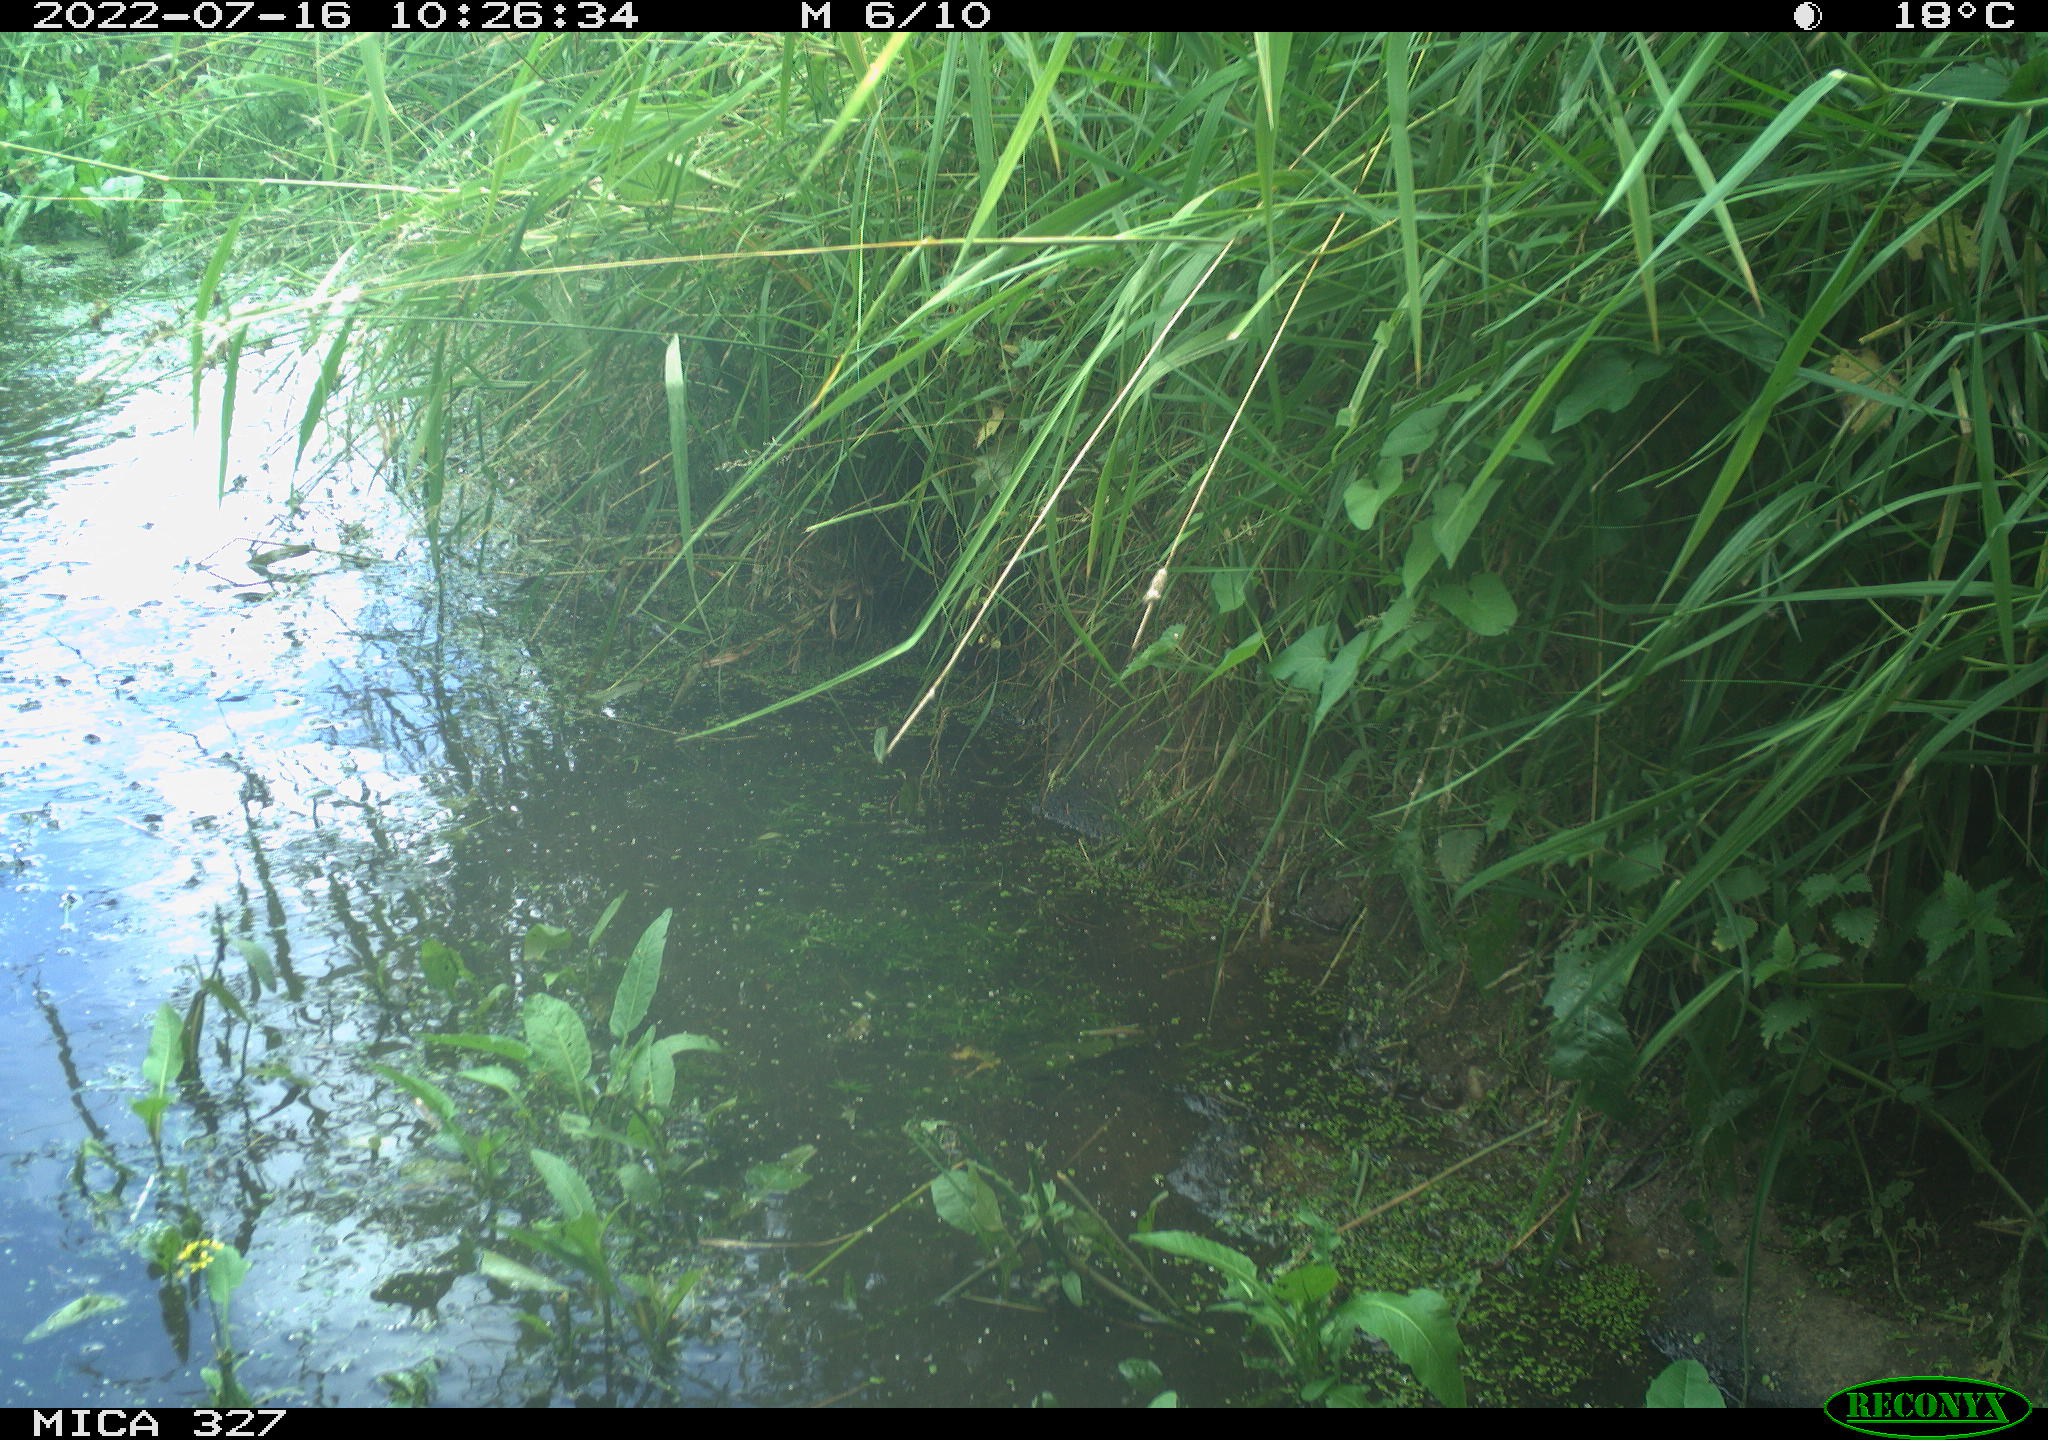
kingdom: Animalia
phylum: Chordata
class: Aves
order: Anseriformes
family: Anatidae
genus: Anas
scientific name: Anas
